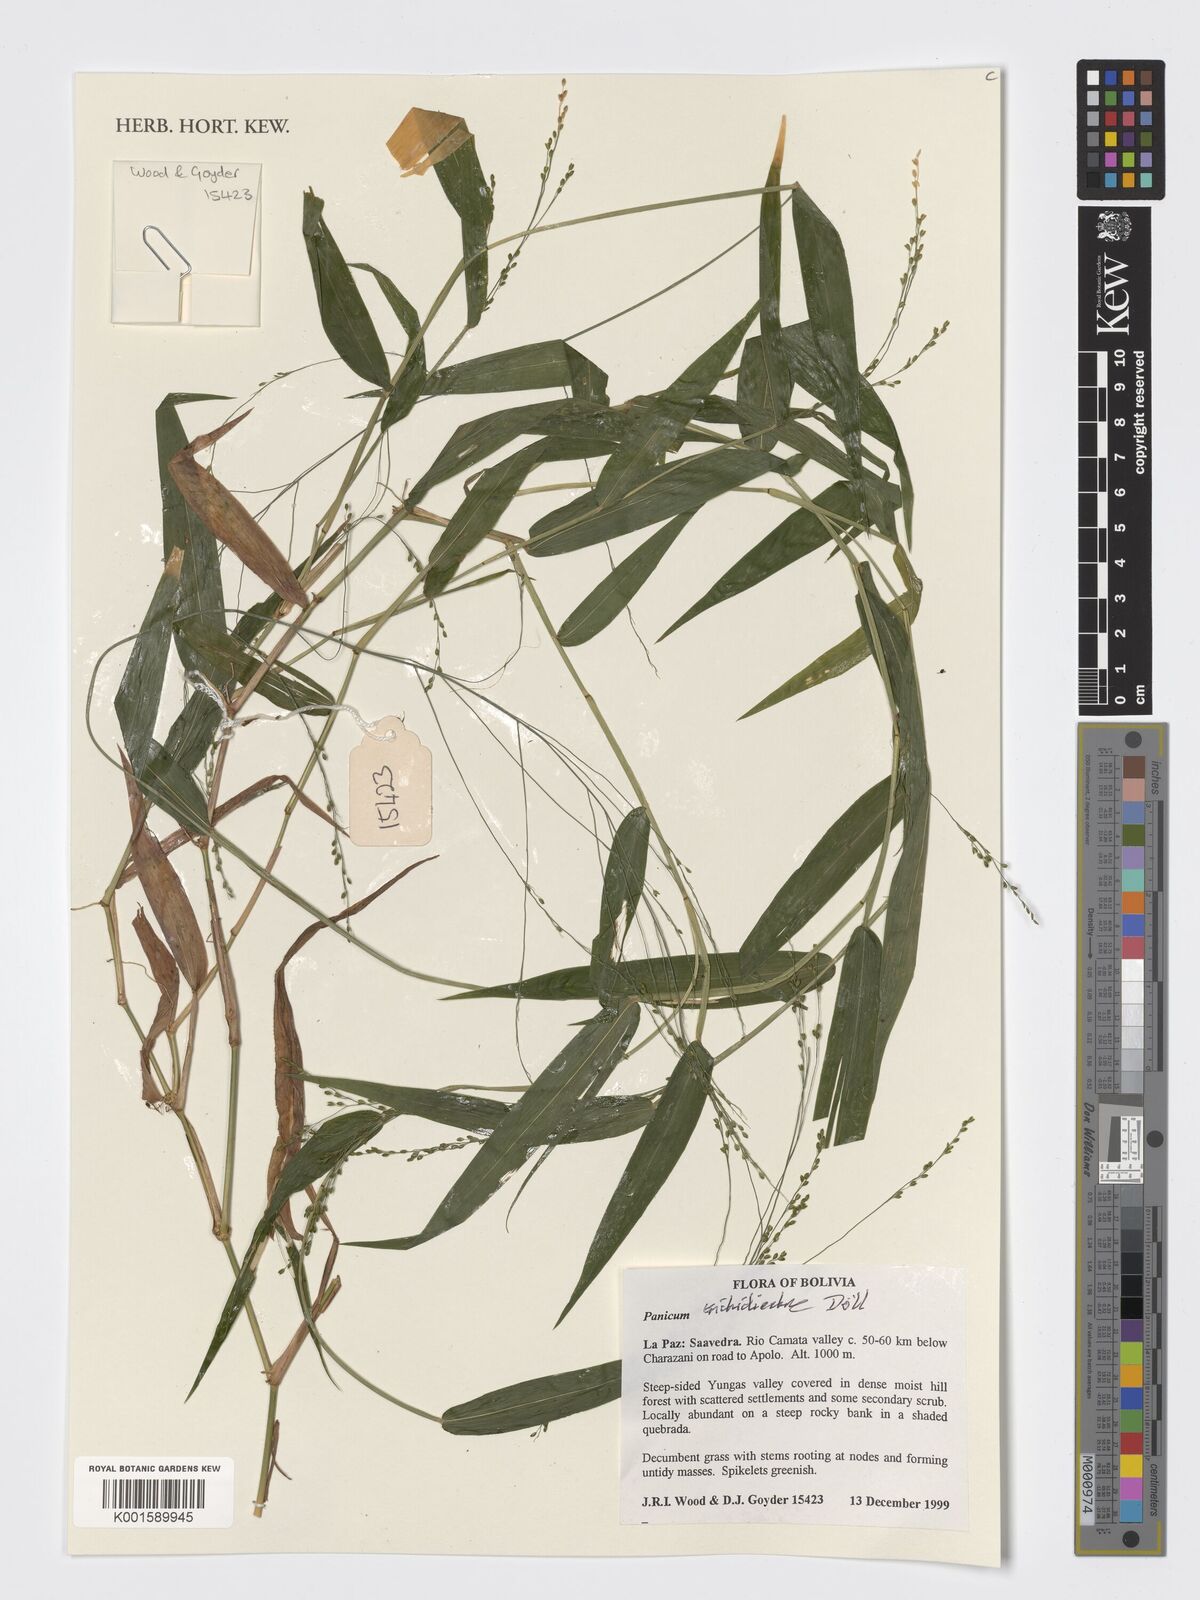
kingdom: Plantae
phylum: Tracheophyta
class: Liliopsida
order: Poales
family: Poaceae
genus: Morronea
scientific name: Morronea trichidiachnis
